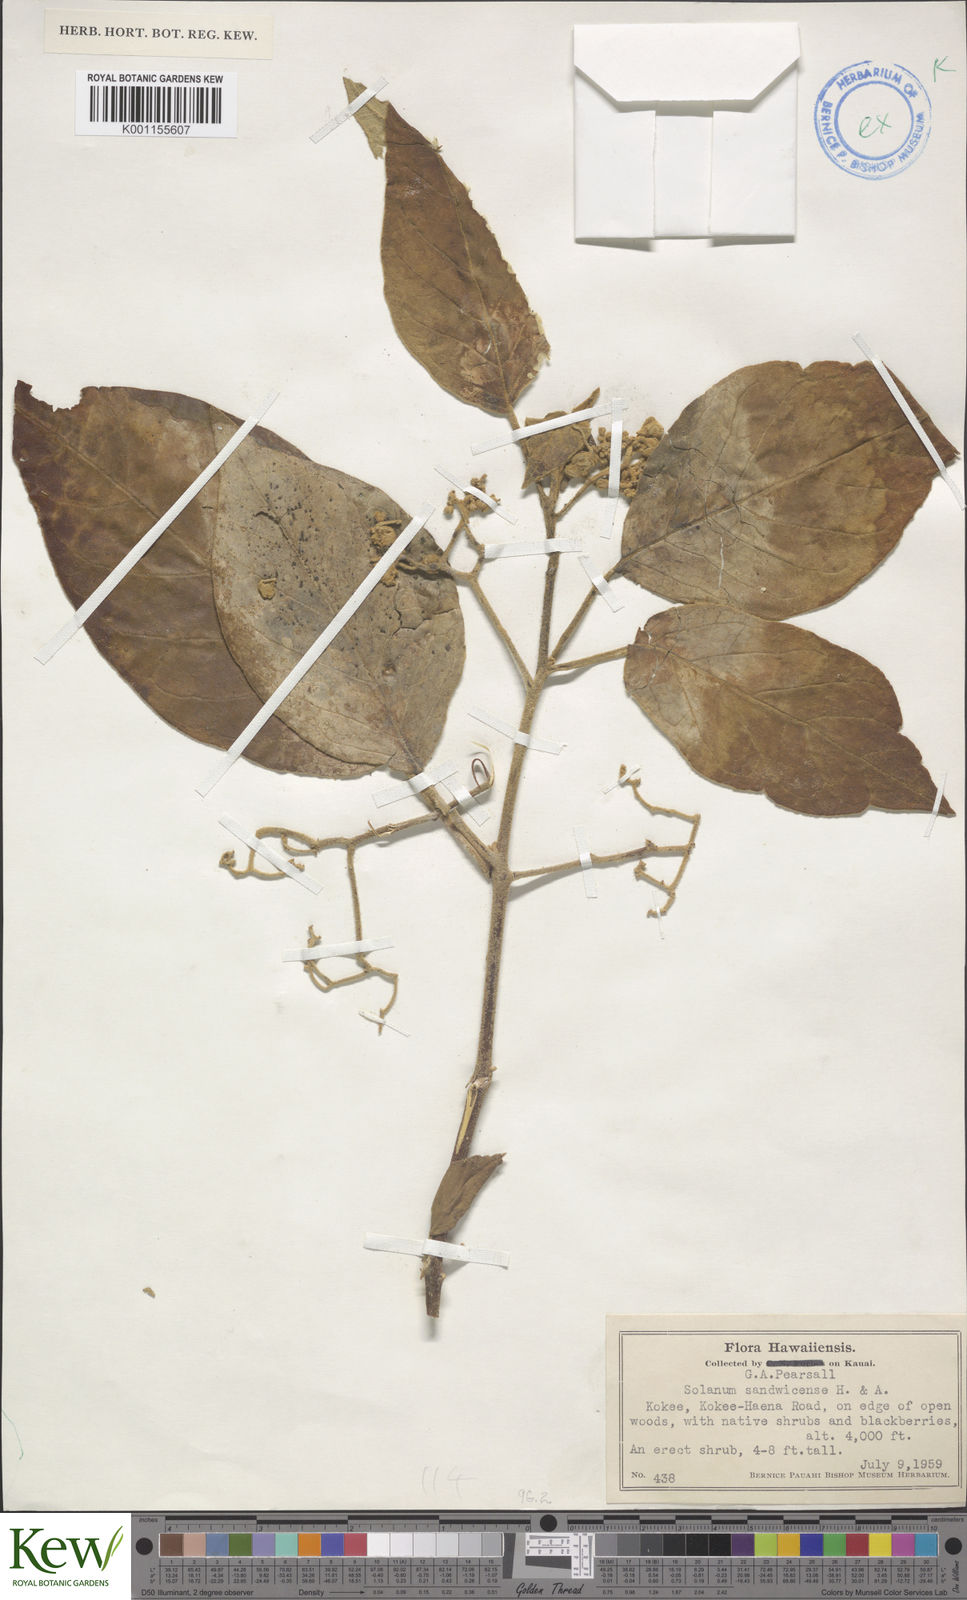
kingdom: Plantae
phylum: Tracheophyta
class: Magnoliopsida
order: Solanales
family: Solanaceae
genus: Solanum
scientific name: Solanum sandwicense
